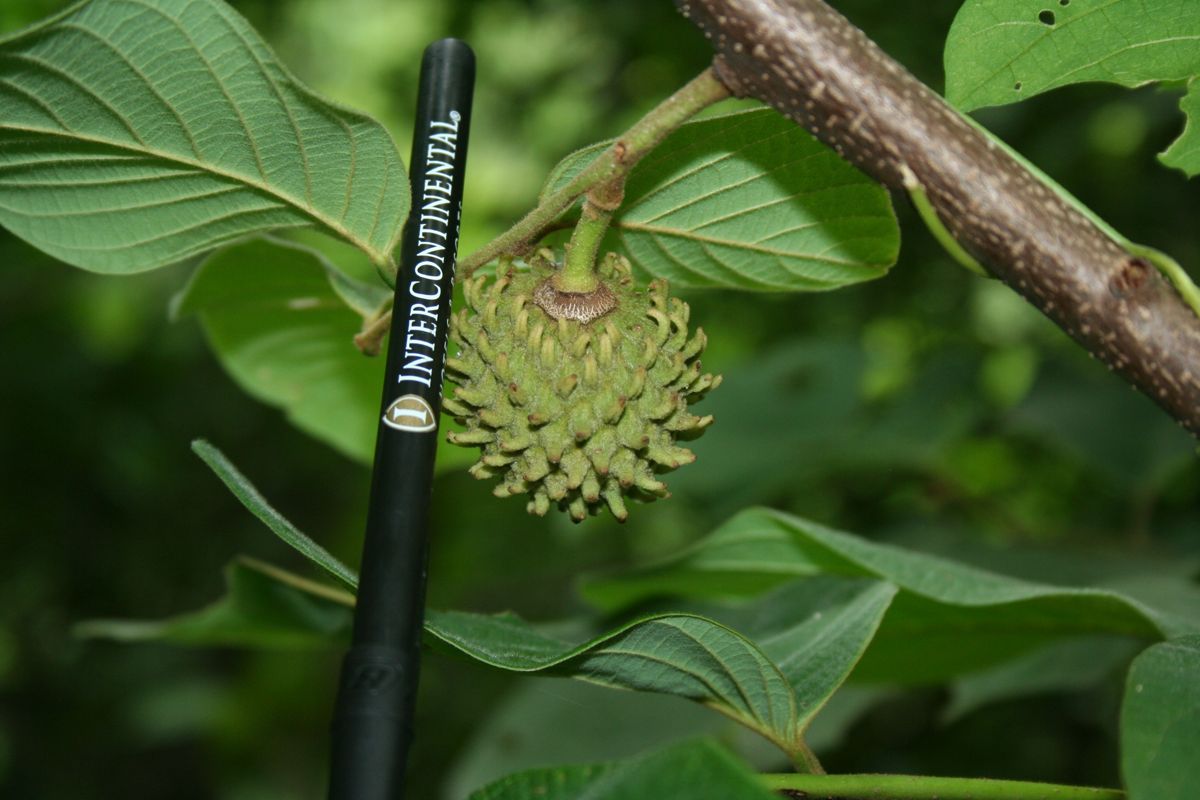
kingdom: Plantae
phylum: Tracheophyta
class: Magnoliopsida
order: Magnoliales
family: Annonaceae
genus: Annona
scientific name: Annona holosericea
